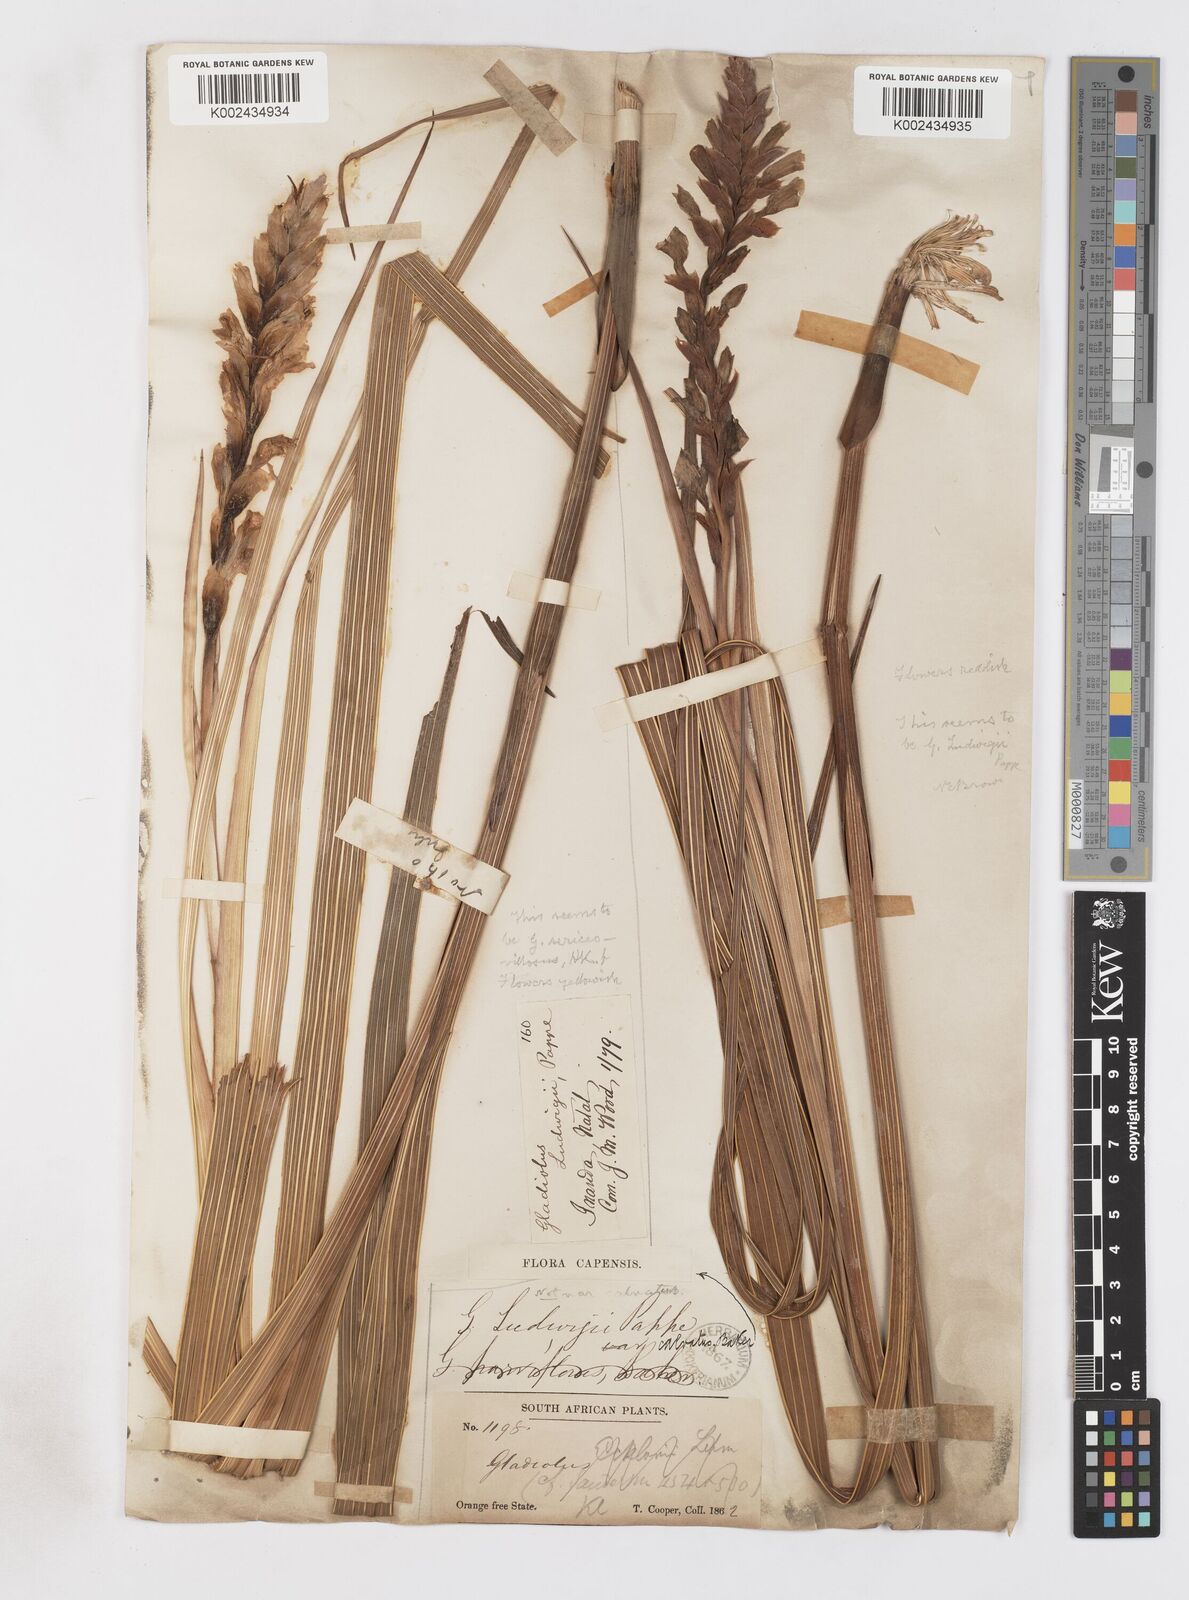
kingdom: Plantae
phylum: Tracheophyta
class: Liliopsida
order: Asparagales
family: Iridaceae
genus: Gladiolus
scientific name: Gladiolus sericeovillosus
